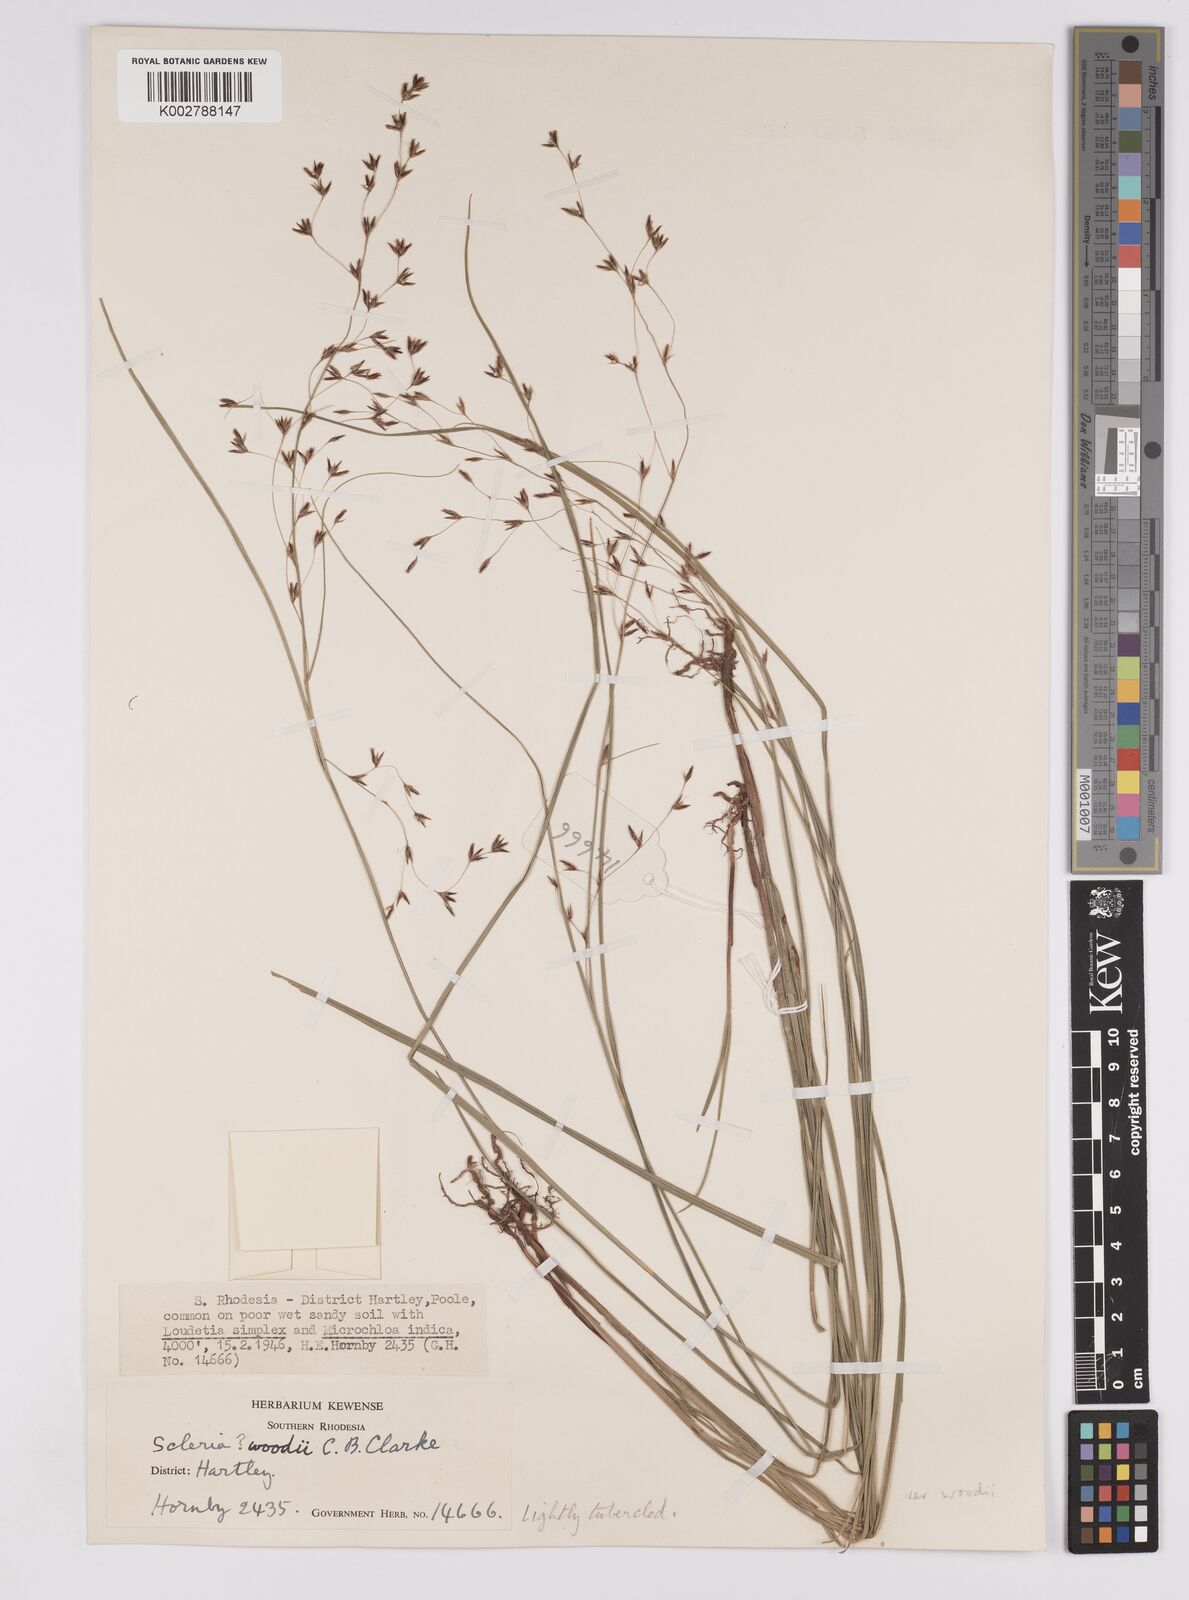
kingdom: Plantae
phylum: Tracheophyta
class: Liliopsida
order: Poales
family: Cyperaceae
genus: Scleria
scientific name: Scleria woodii
